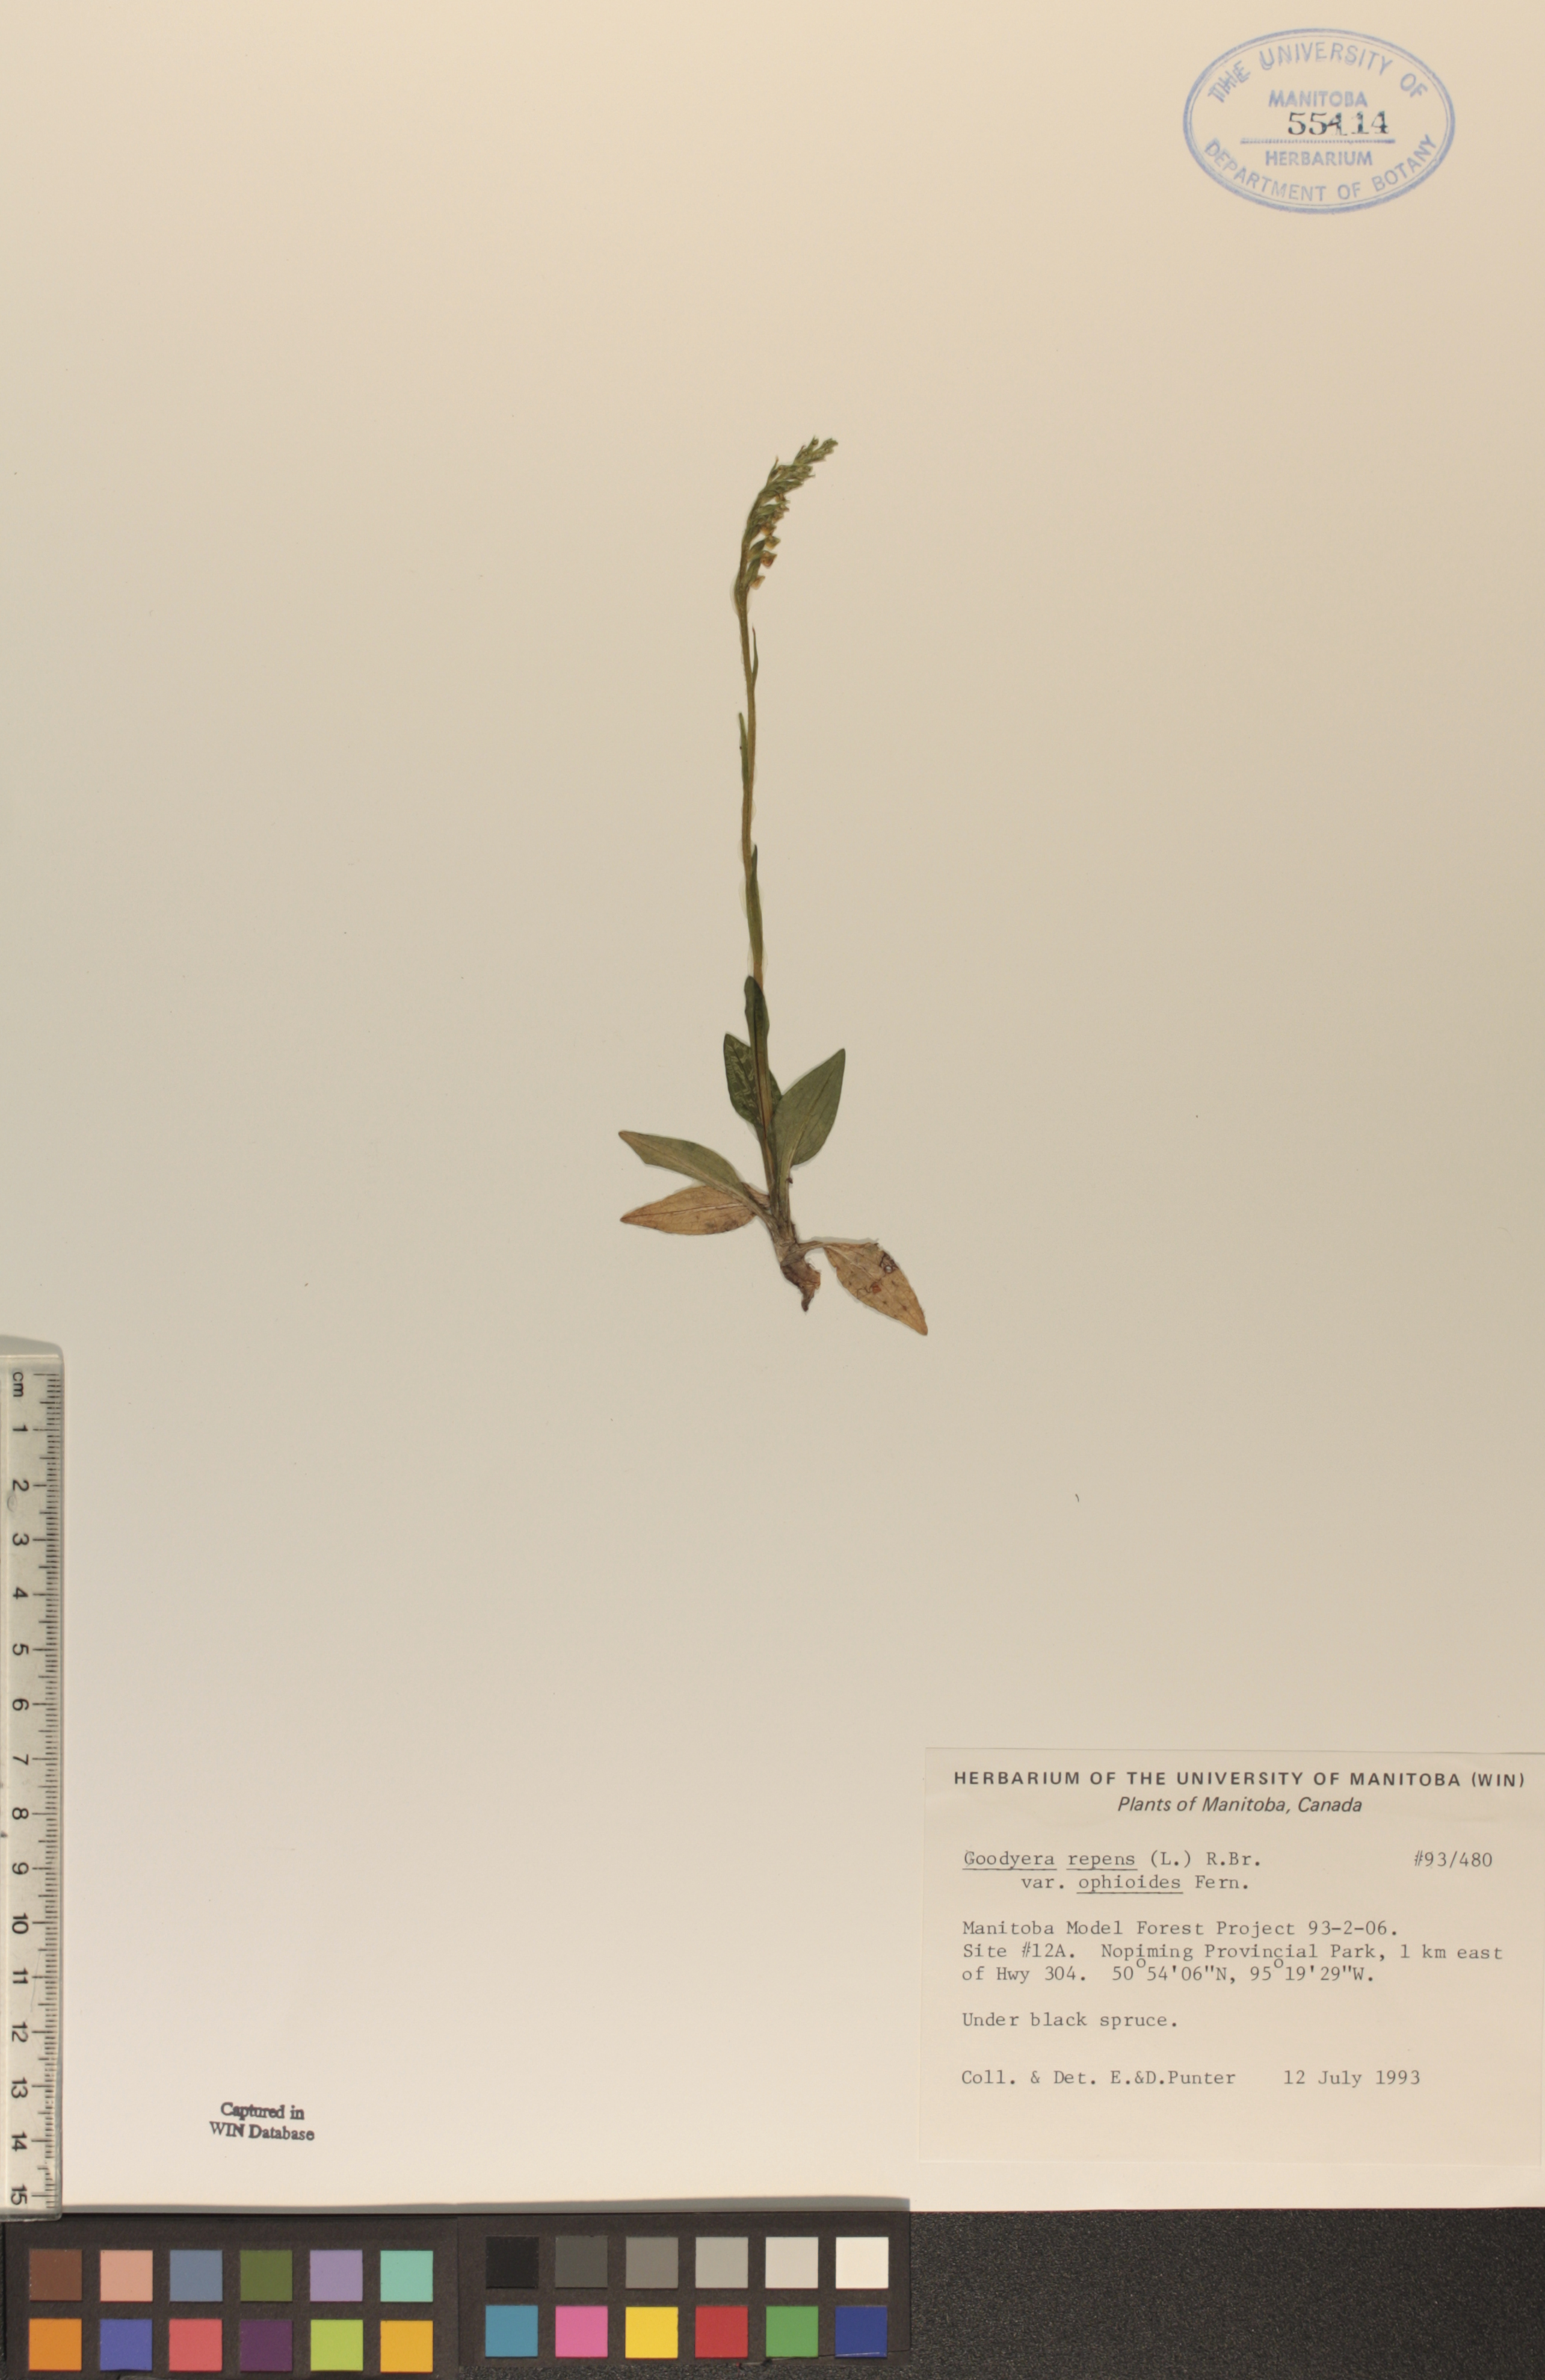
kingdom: Plantae
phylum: Tracheophyta
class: Liliopsida
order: Asparagales
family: Orchidaceae
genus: Goodyera
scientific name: Goodyera repens
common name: Creeping lady's-tresses
